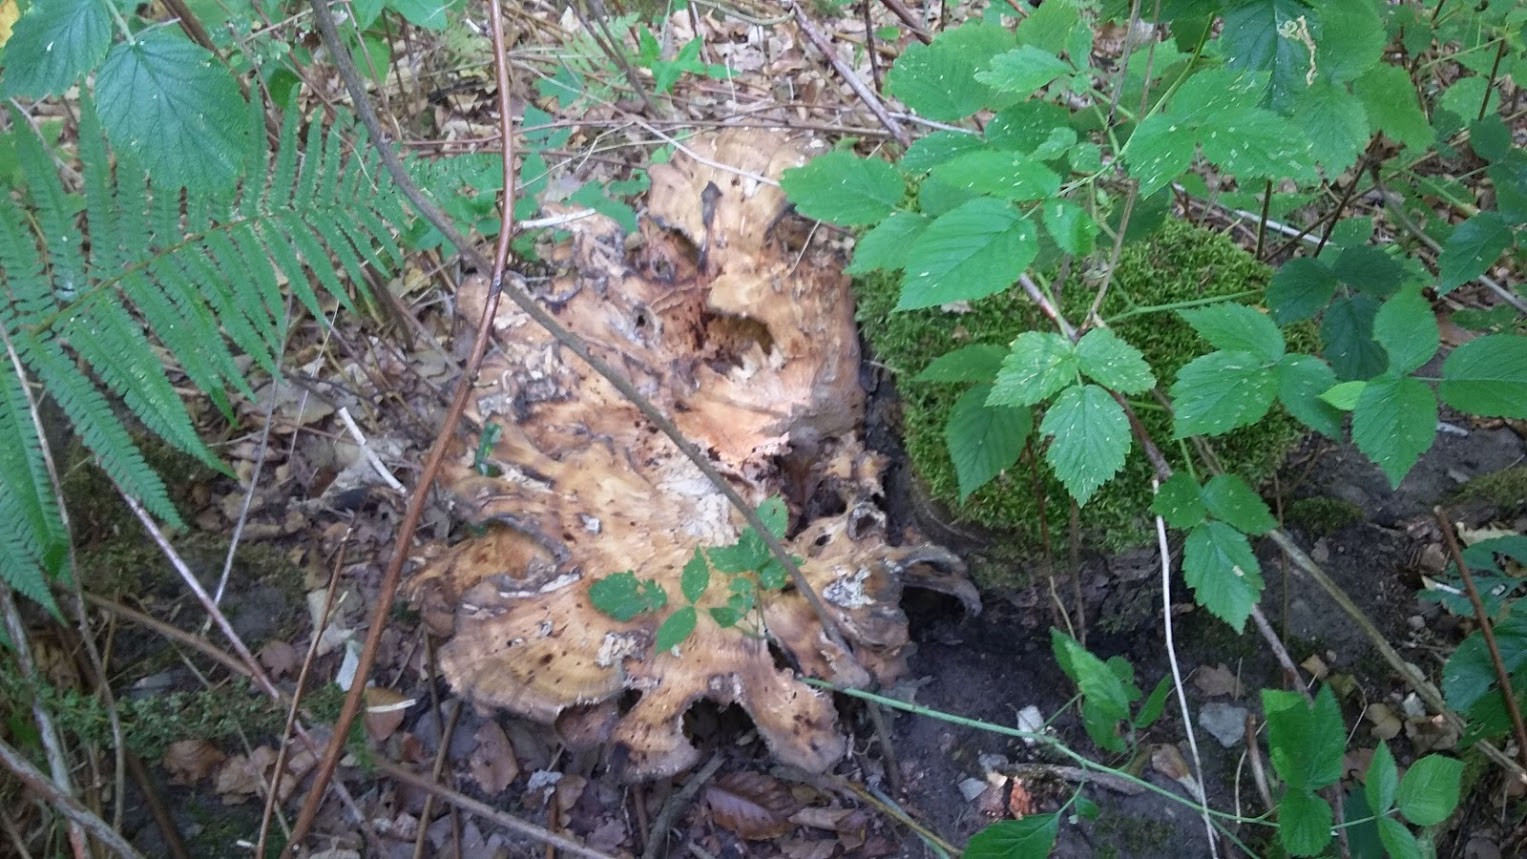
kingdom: Fungi
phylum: Basidiomycota
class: Agaricomycetes
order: Polyporales
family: Meripilaceae
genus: Meripilus
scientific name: Meripilus giganteus
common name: kæmpeporesvamp
